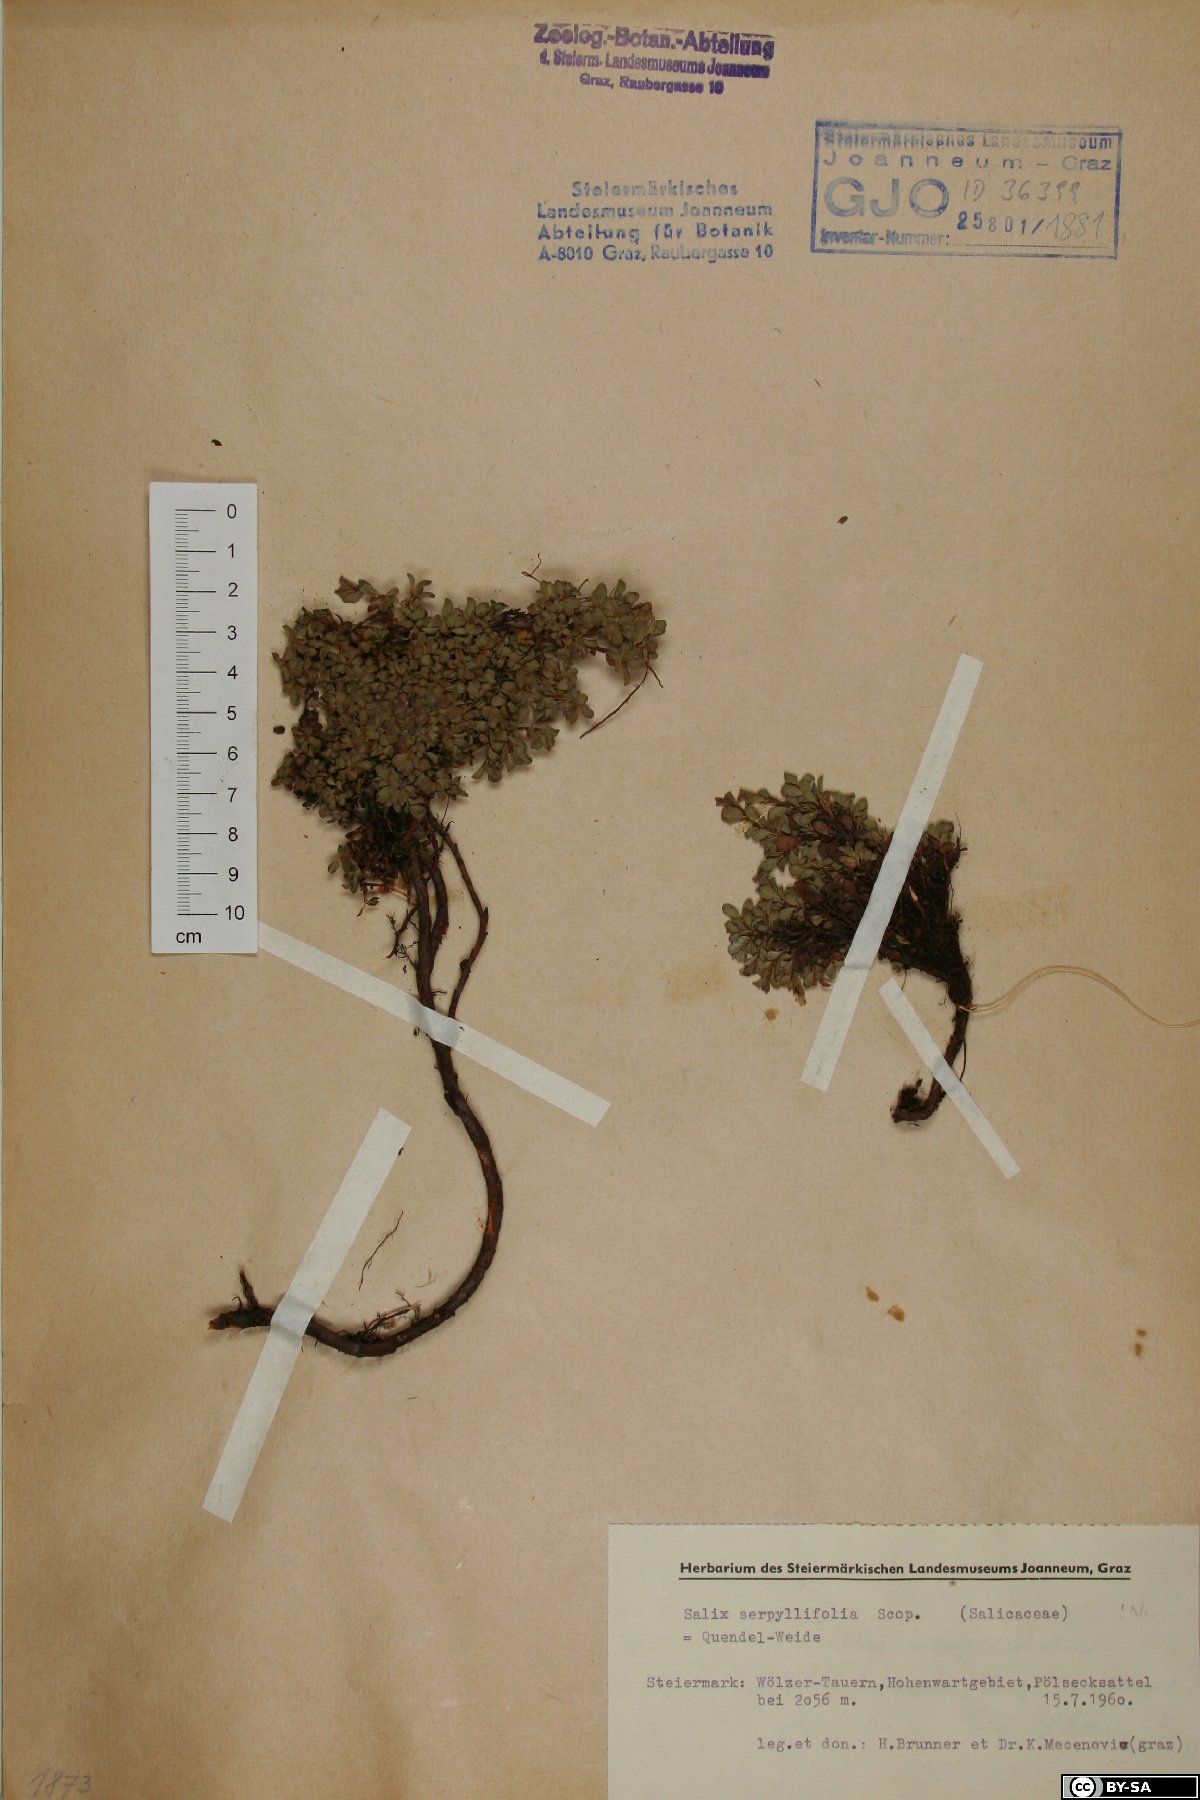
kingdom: Plantae
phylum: Tracheophyta
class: Magnoliopsida
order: Malpighiales
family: Salicaceae
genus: Salix
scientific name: Salix serpillifolia
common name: Thyme-leaf willow
